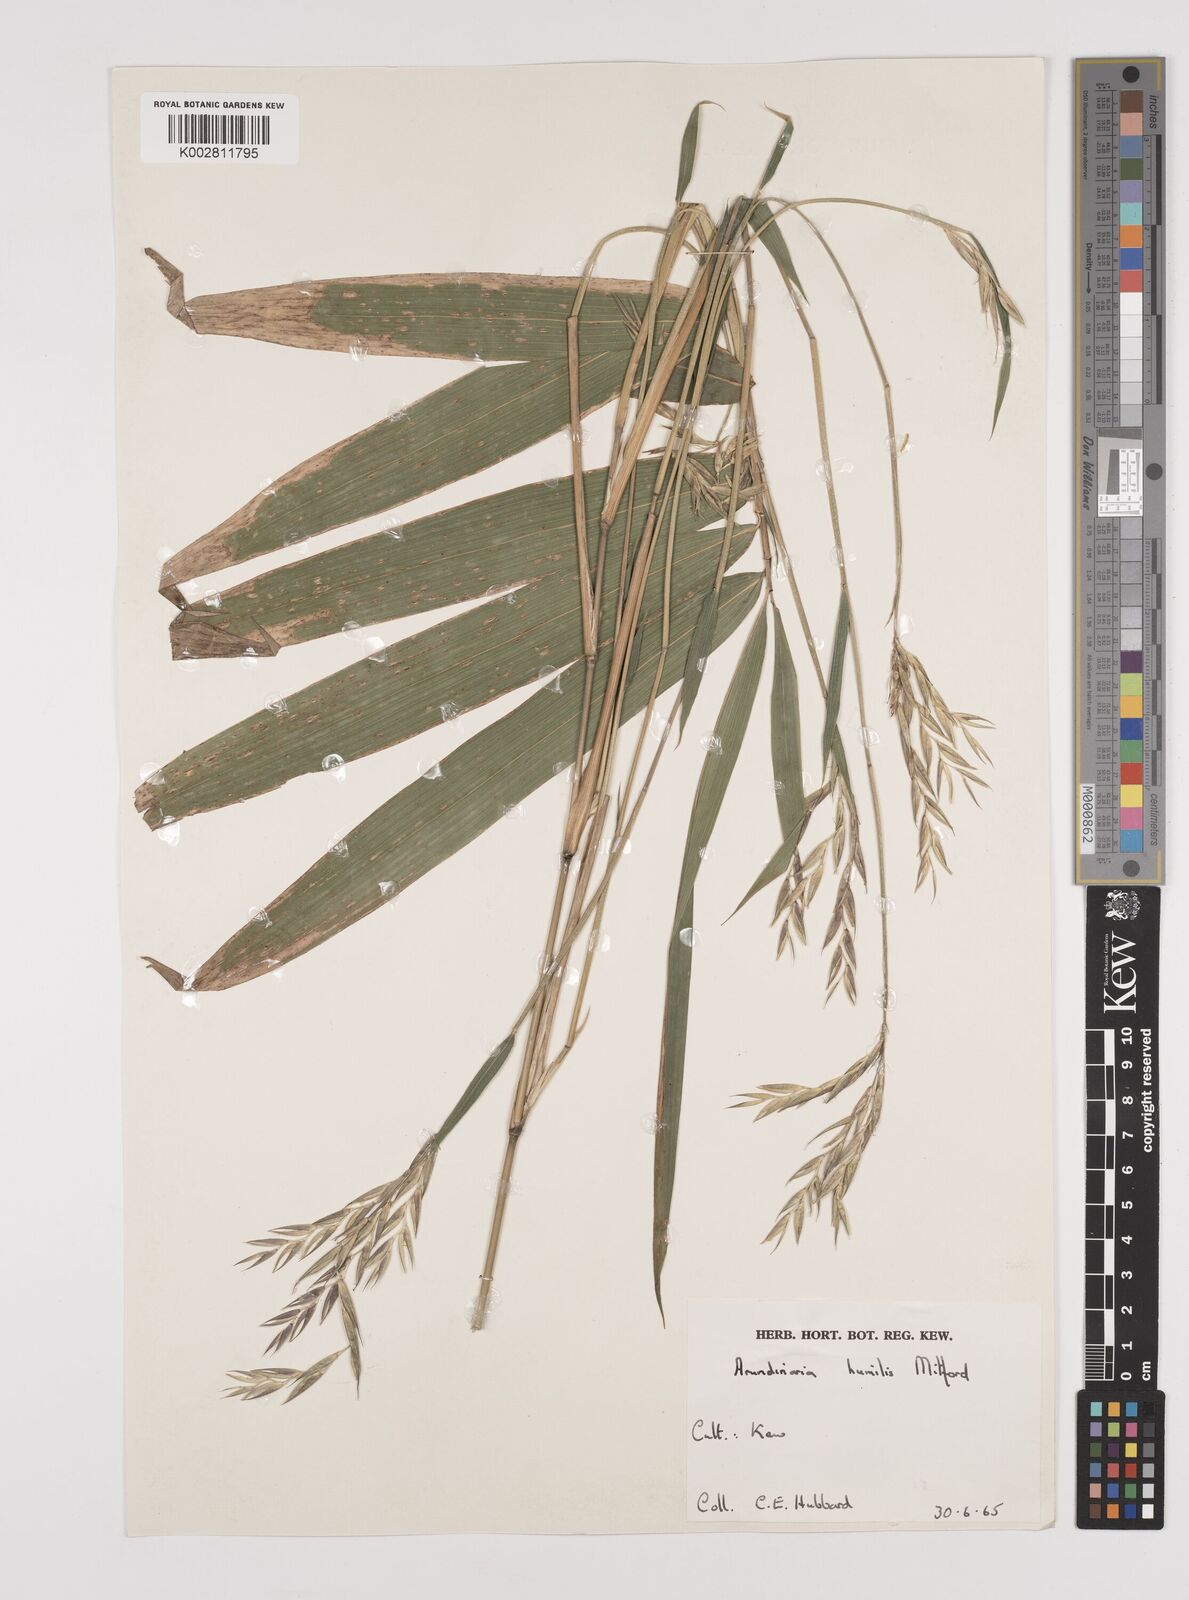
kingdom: Plantae
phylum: Tracheophyta
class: Liliopsida
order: Poales
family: Poaceae
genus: Pseudosasa
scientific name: Pseudosasa humilis
